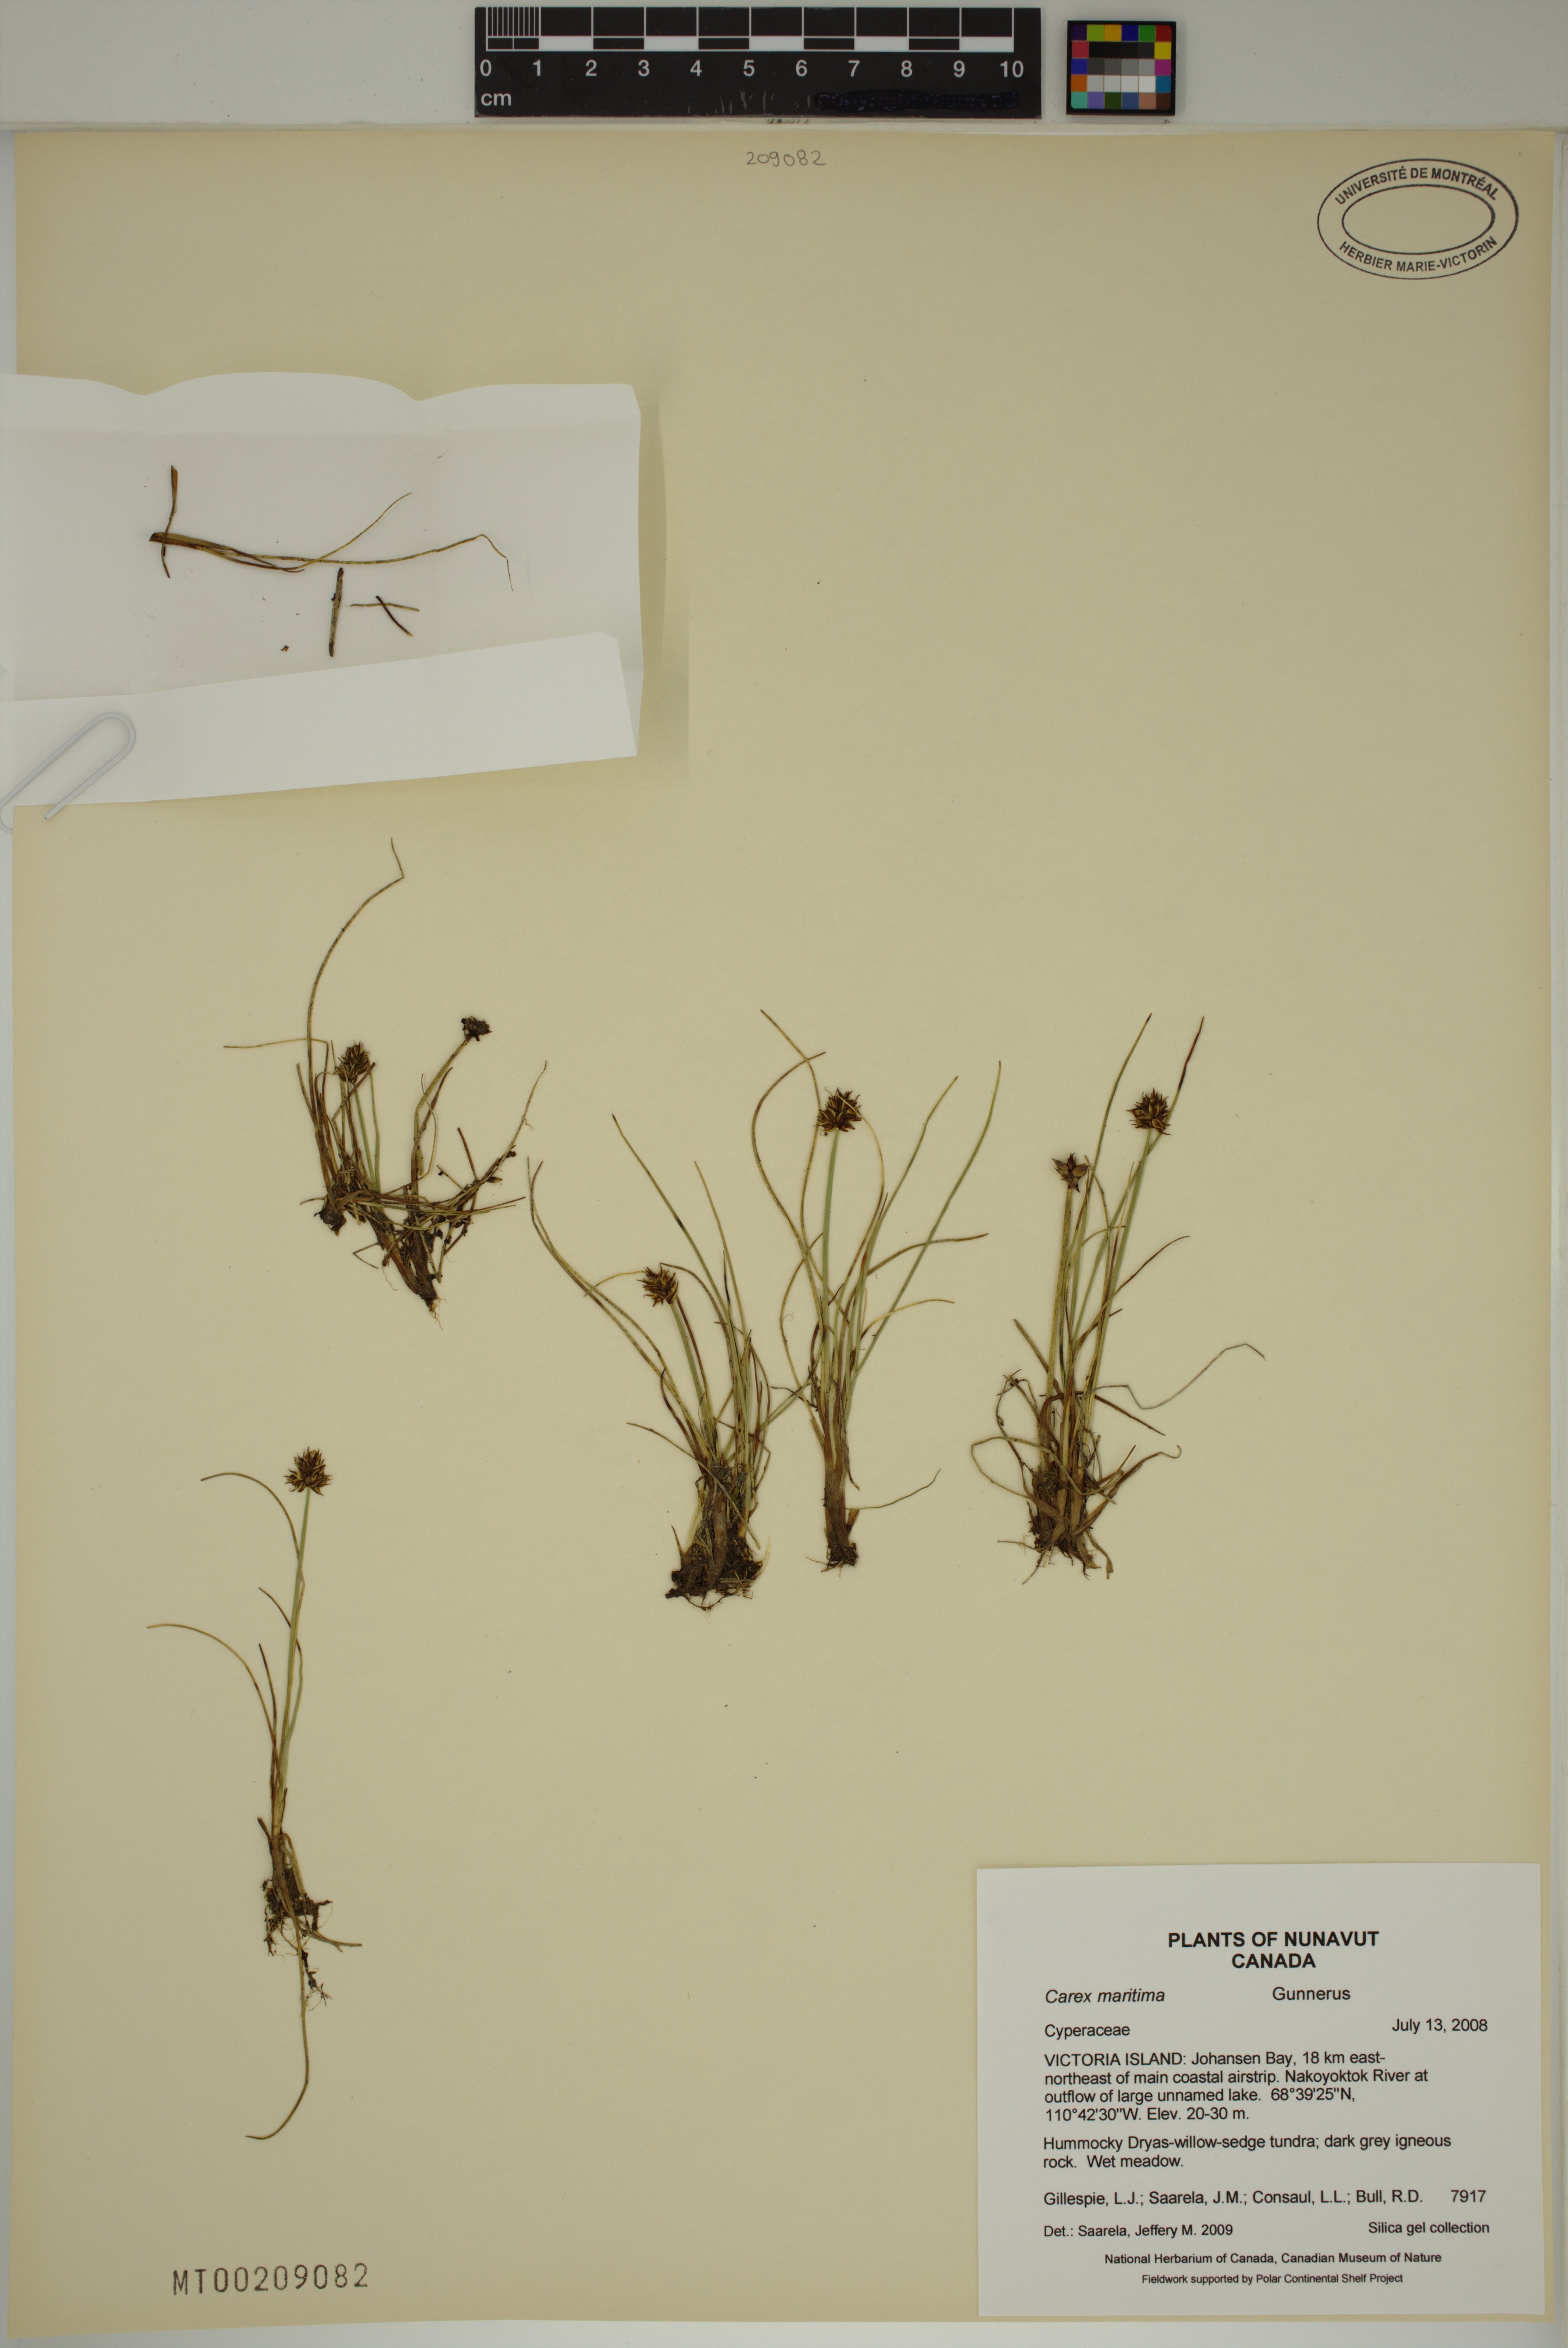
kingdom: Plantae
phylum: Tracheophyta
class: Liliopsida
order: Poales
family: Cyperaceae
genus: Carex
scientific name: Carex maritima
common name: Curved sedge
